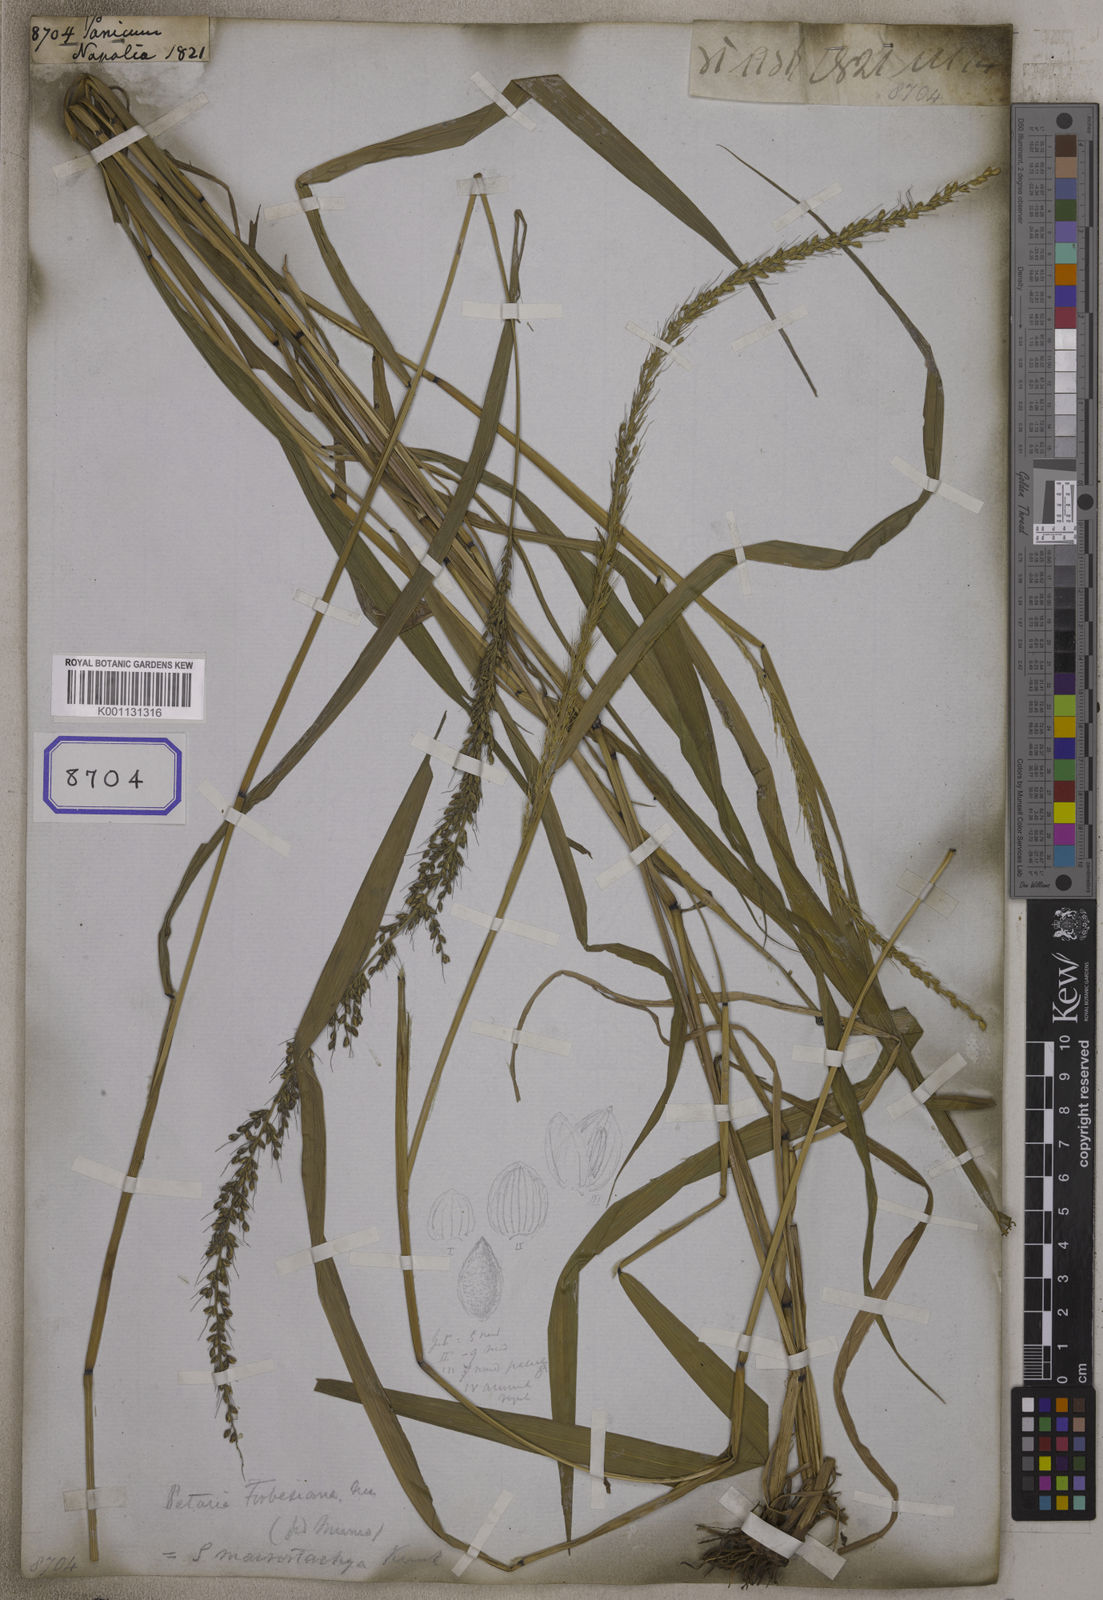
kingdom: Plantae
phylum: Tracheophyta
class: Liliopsida
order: Poales
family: Poaceae
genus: Panicum
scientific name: Panicum
